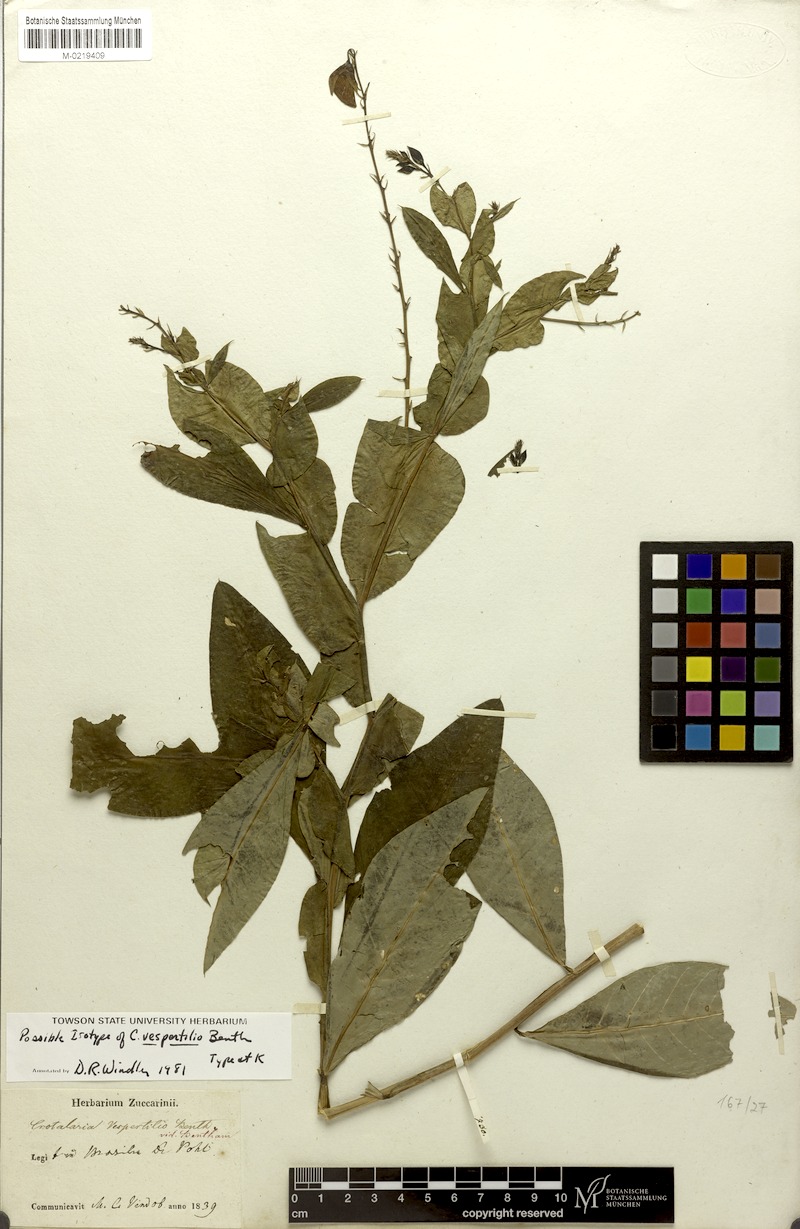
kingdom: Plantae
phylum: Tracheophyta
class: Magnoliopsida
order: Fabales
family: Fabaceae
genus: Crotalaria
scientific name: Crotalaria vespertilio
